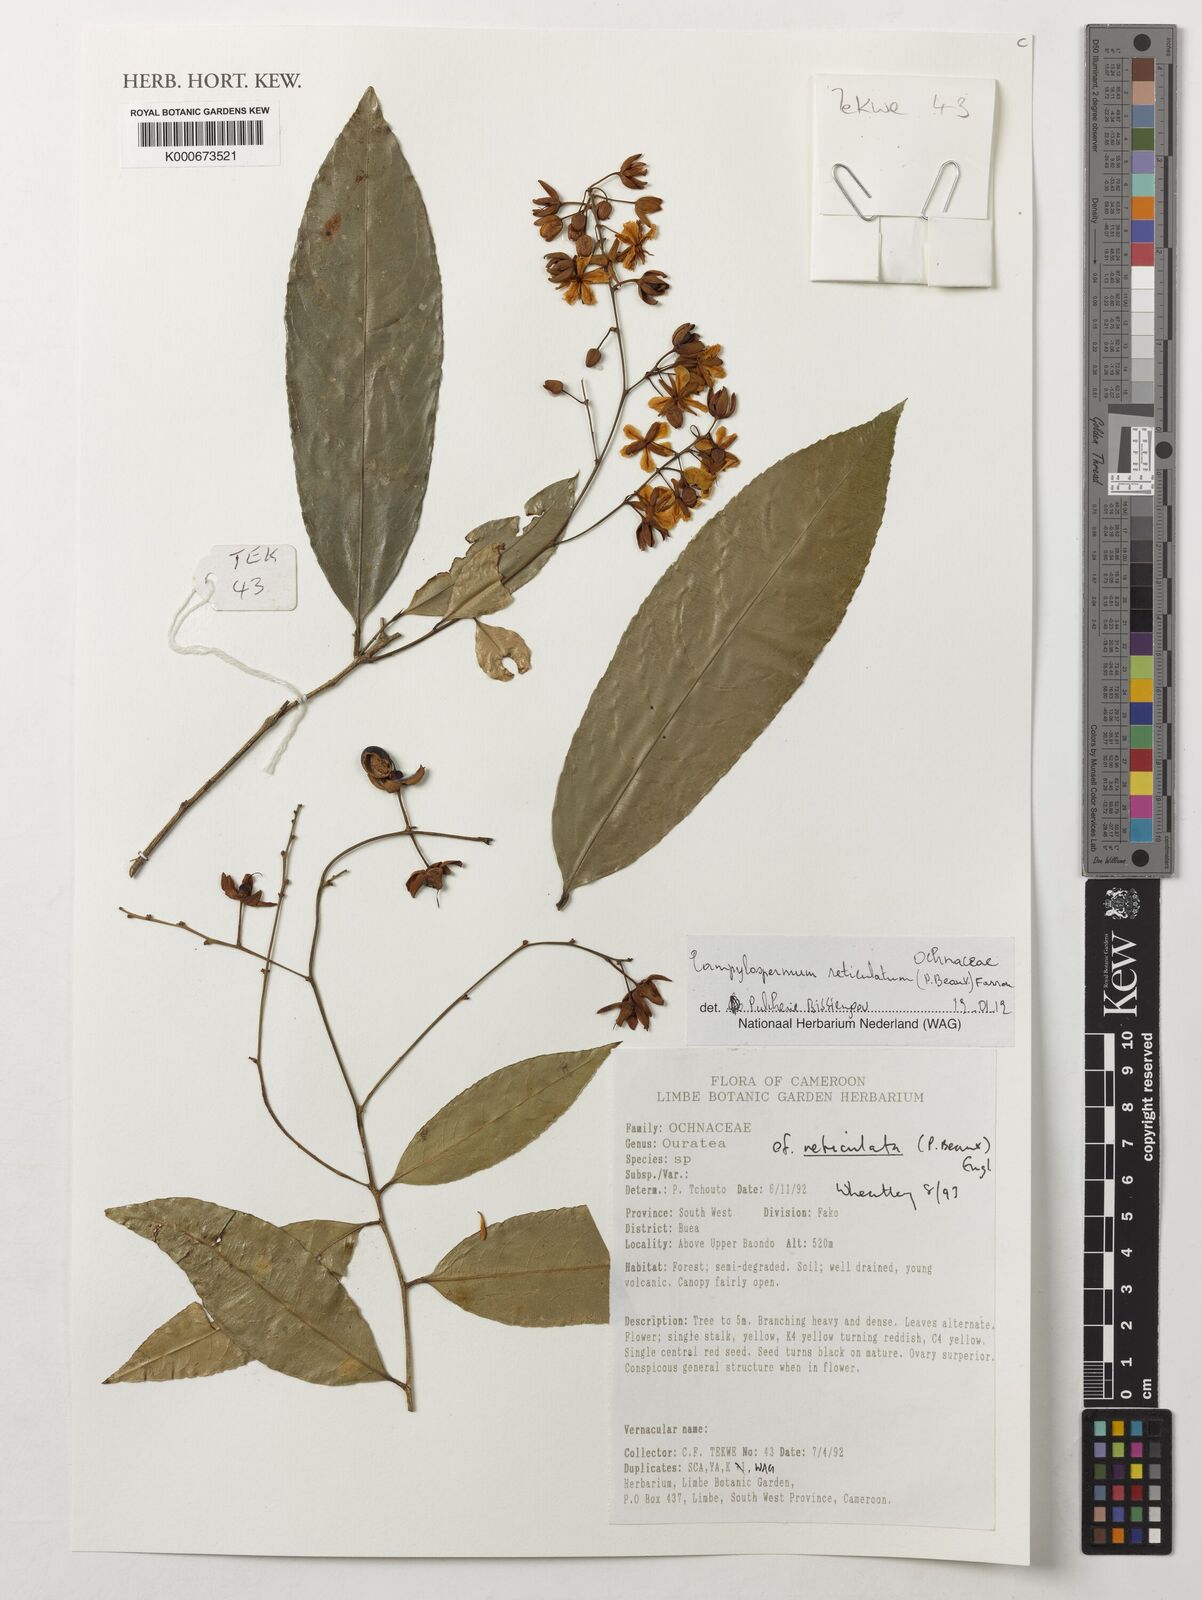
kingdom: Plantae
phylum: Tracheophyta
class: Magnoliopsida
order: Malpighiales
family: Ochnaceae
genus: Campylospermum
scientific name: Campylospermum reticulatum
